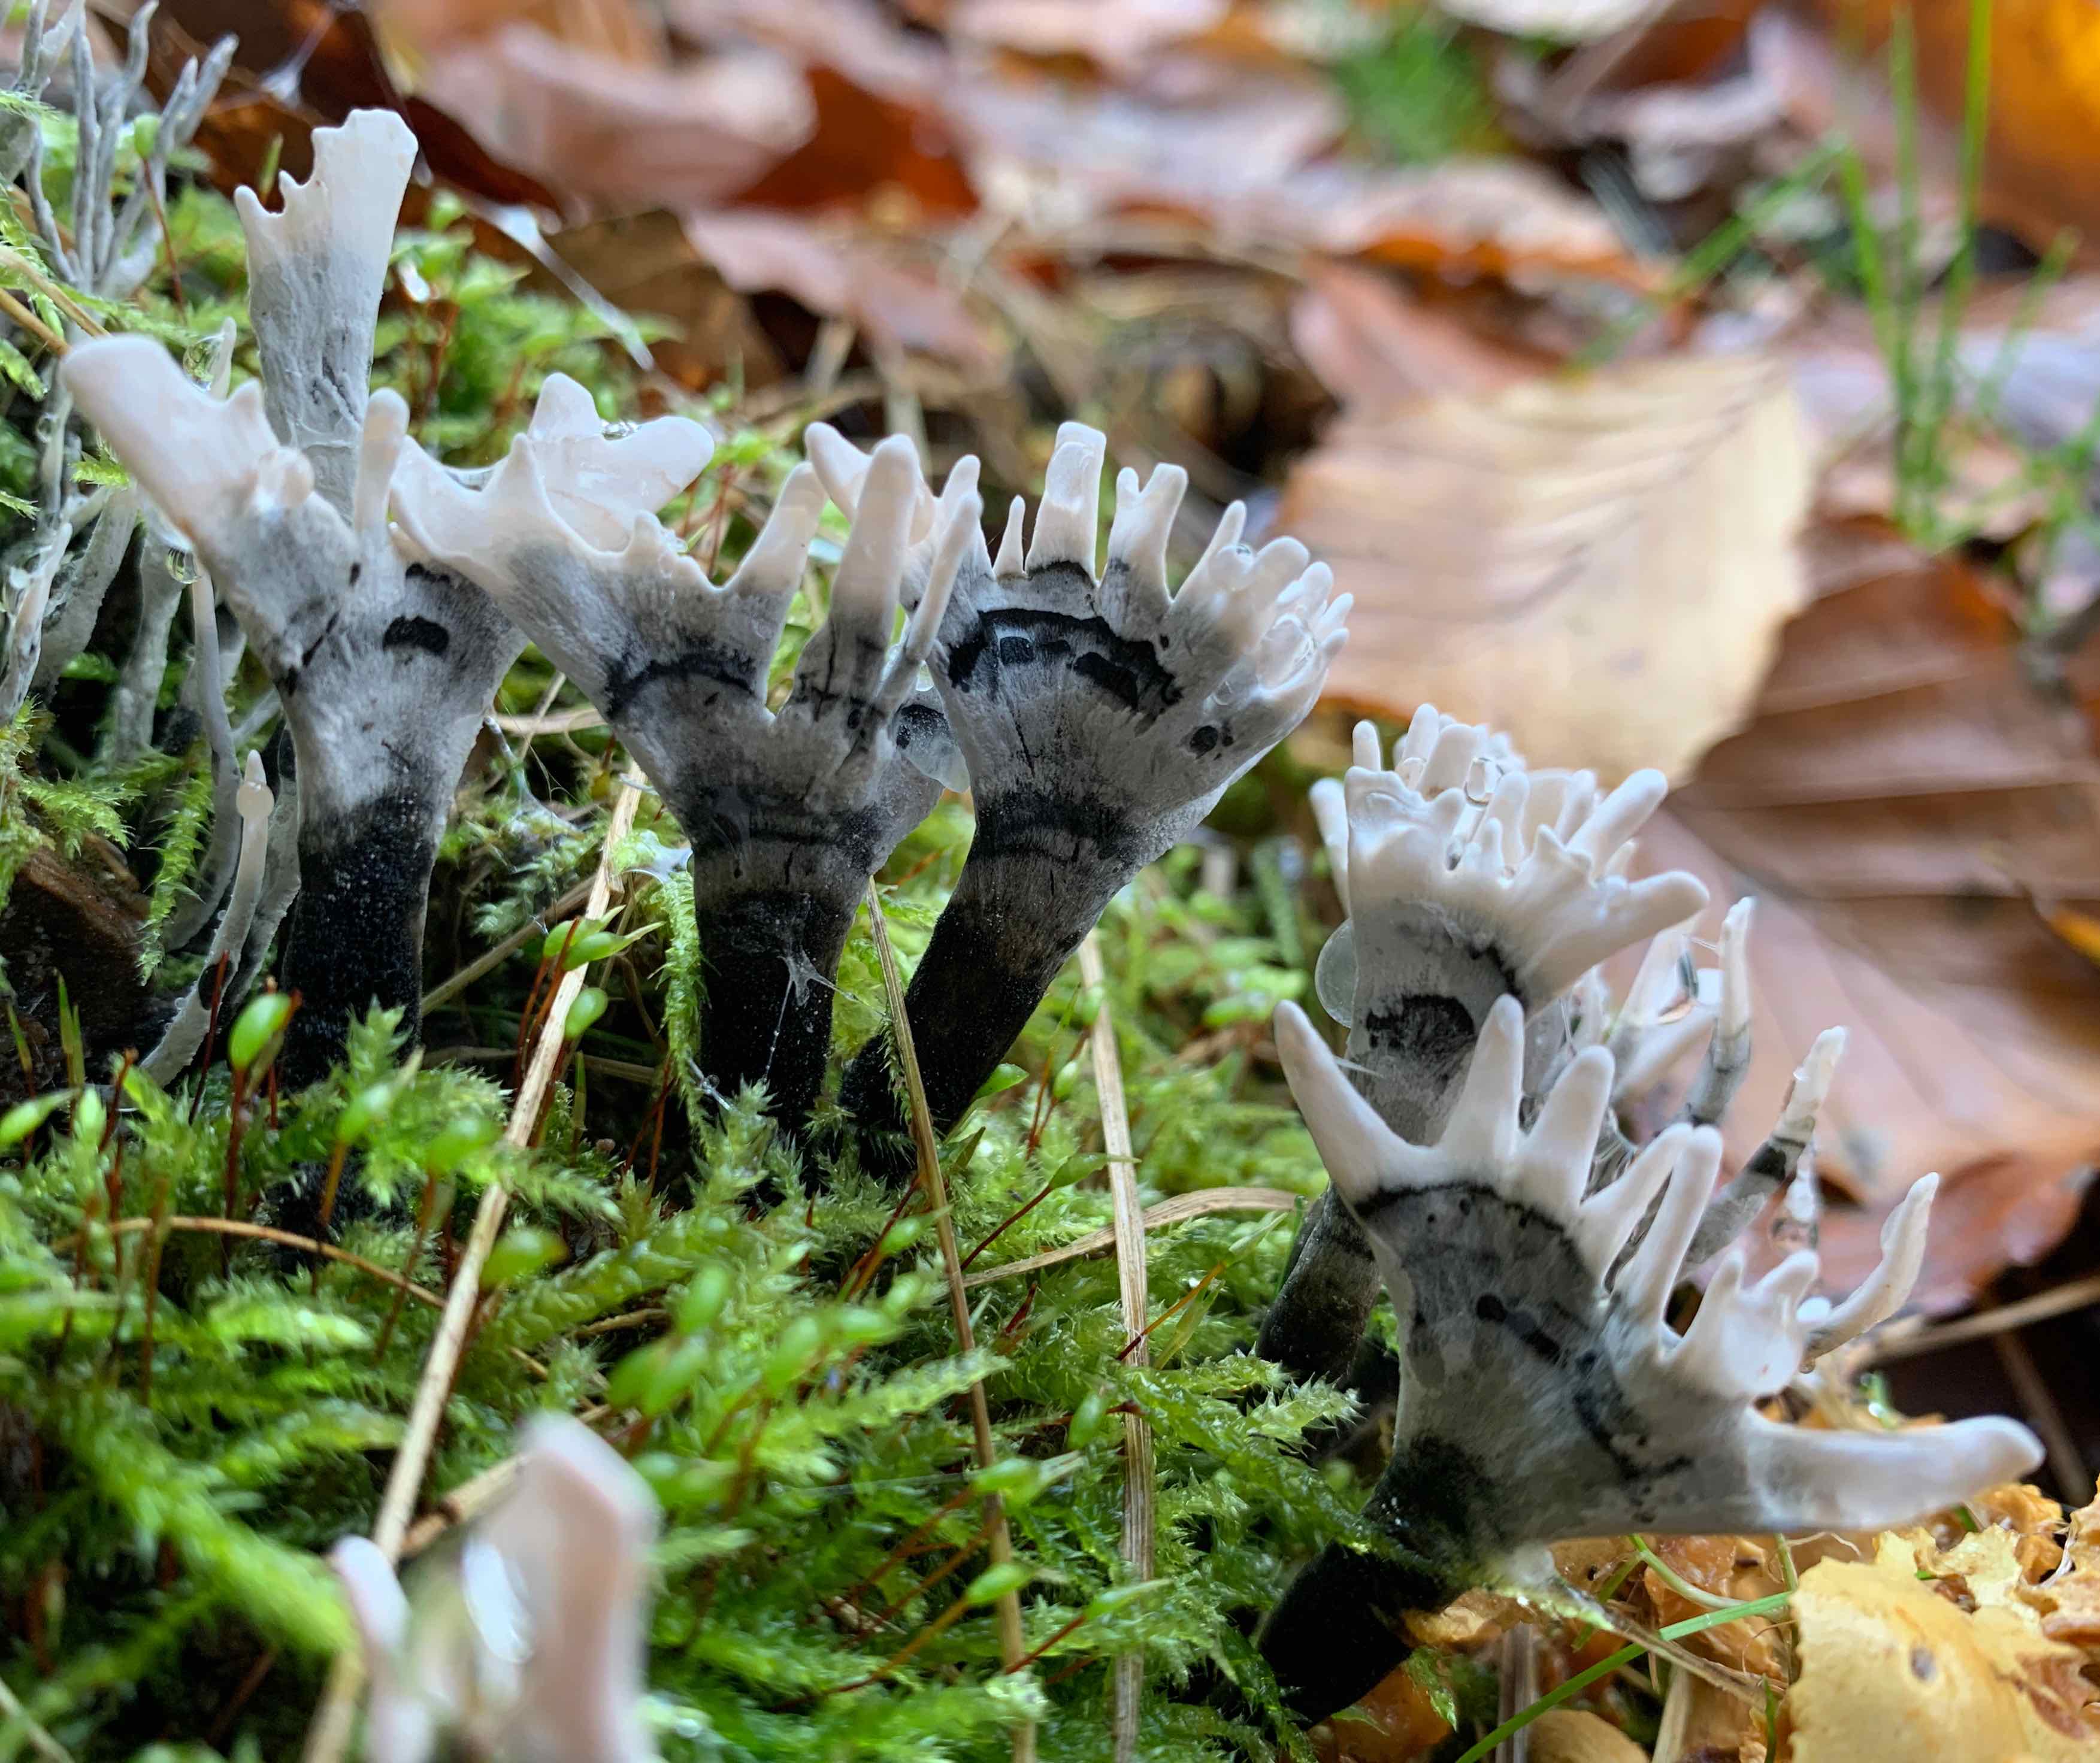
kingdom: Fungi
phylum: Ascomycota
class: Sordariomycetes
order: Xylariales
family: Xylariaceae
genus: Xylaria
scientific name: Xylaria hypoxylon
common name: grenet stødsvamp
